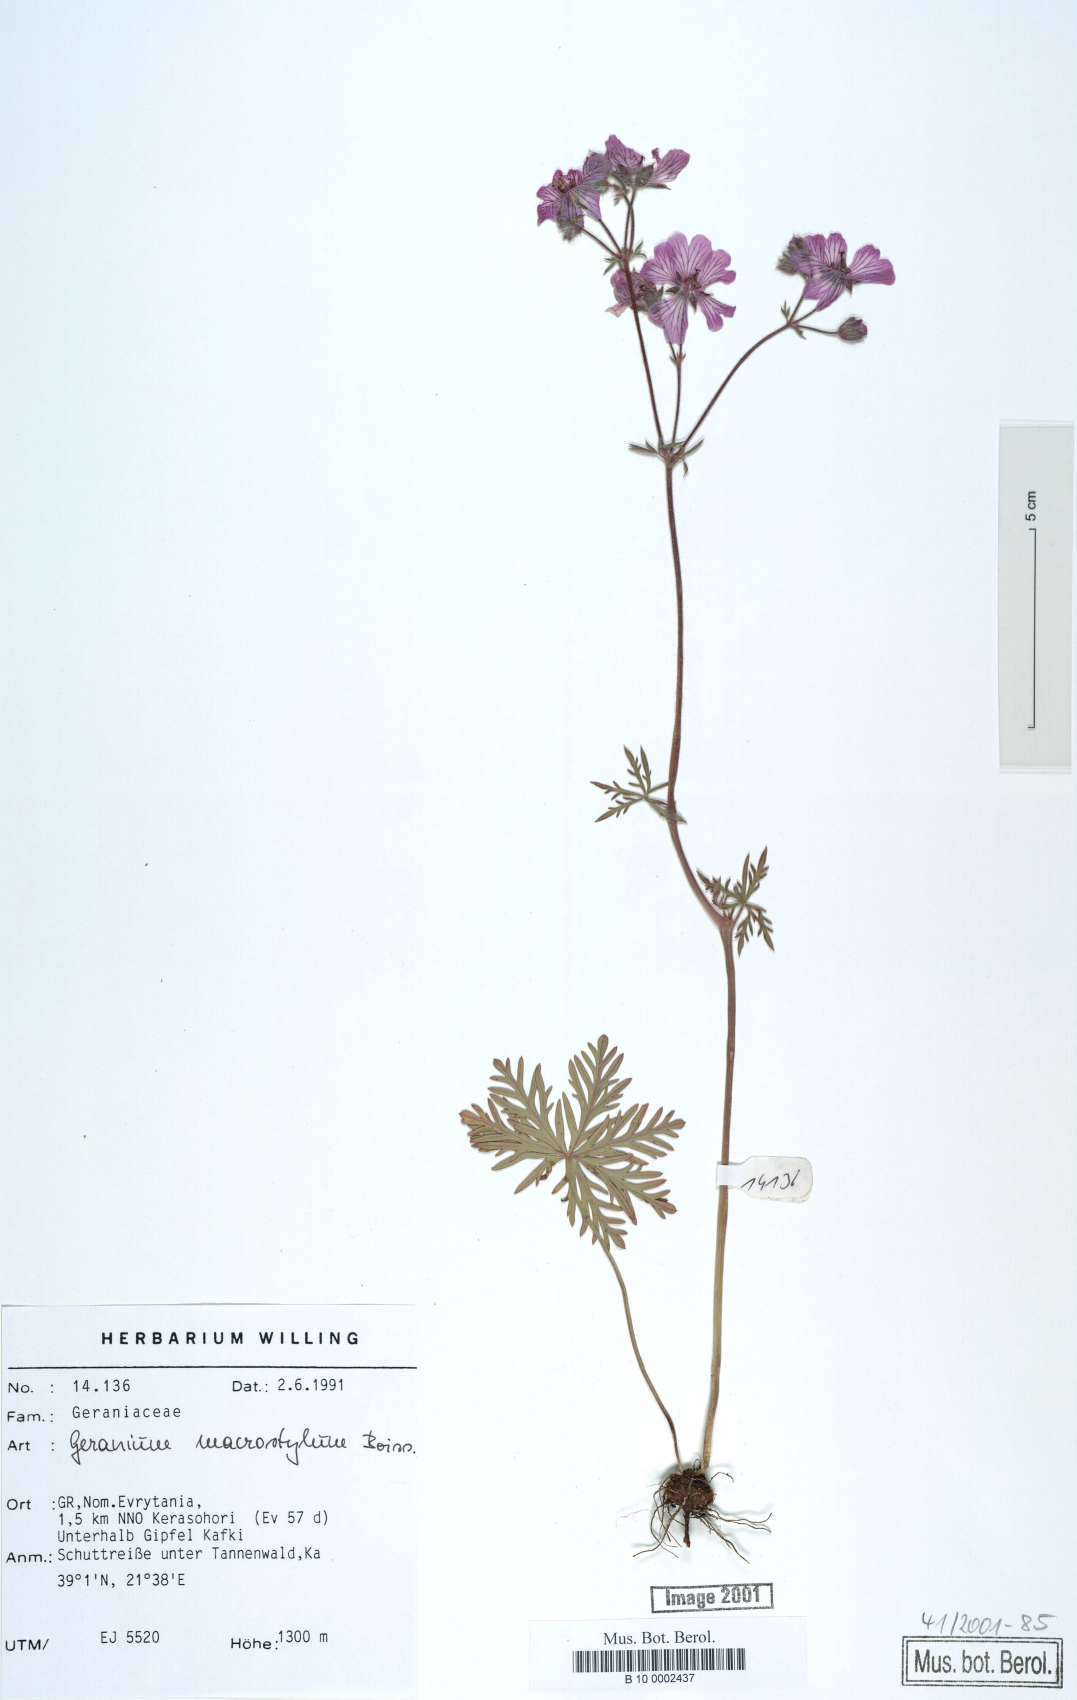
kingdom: Plantae
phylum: Tracheophyta
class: Magnoliopsida
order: Geraniales
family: Geraniaceae
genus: Geranium
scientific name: Geranium macrostylum
